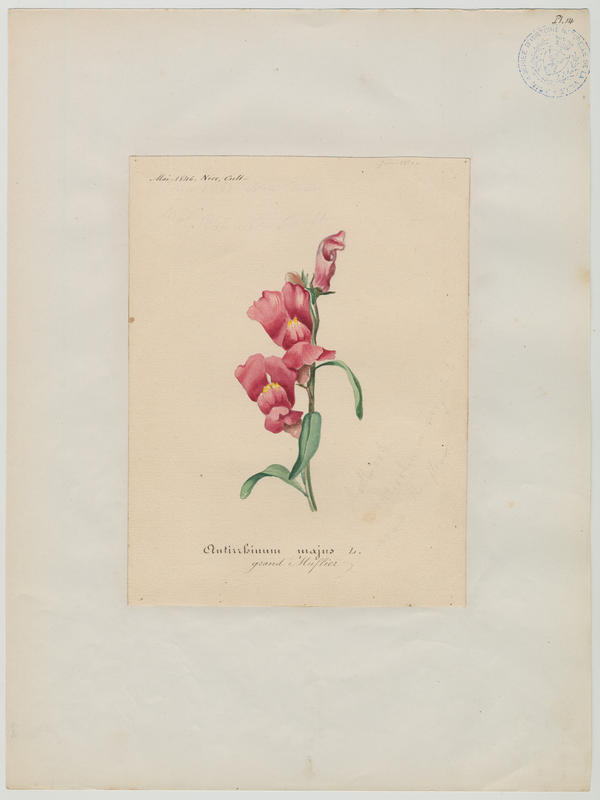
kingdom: Plantae
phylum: Tracheophyta
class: Magnoliopsida
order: Lamiales
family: Plantaginaceae
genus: Antirrhinum
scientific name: Antirrhinum majus
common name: Snapdragon
